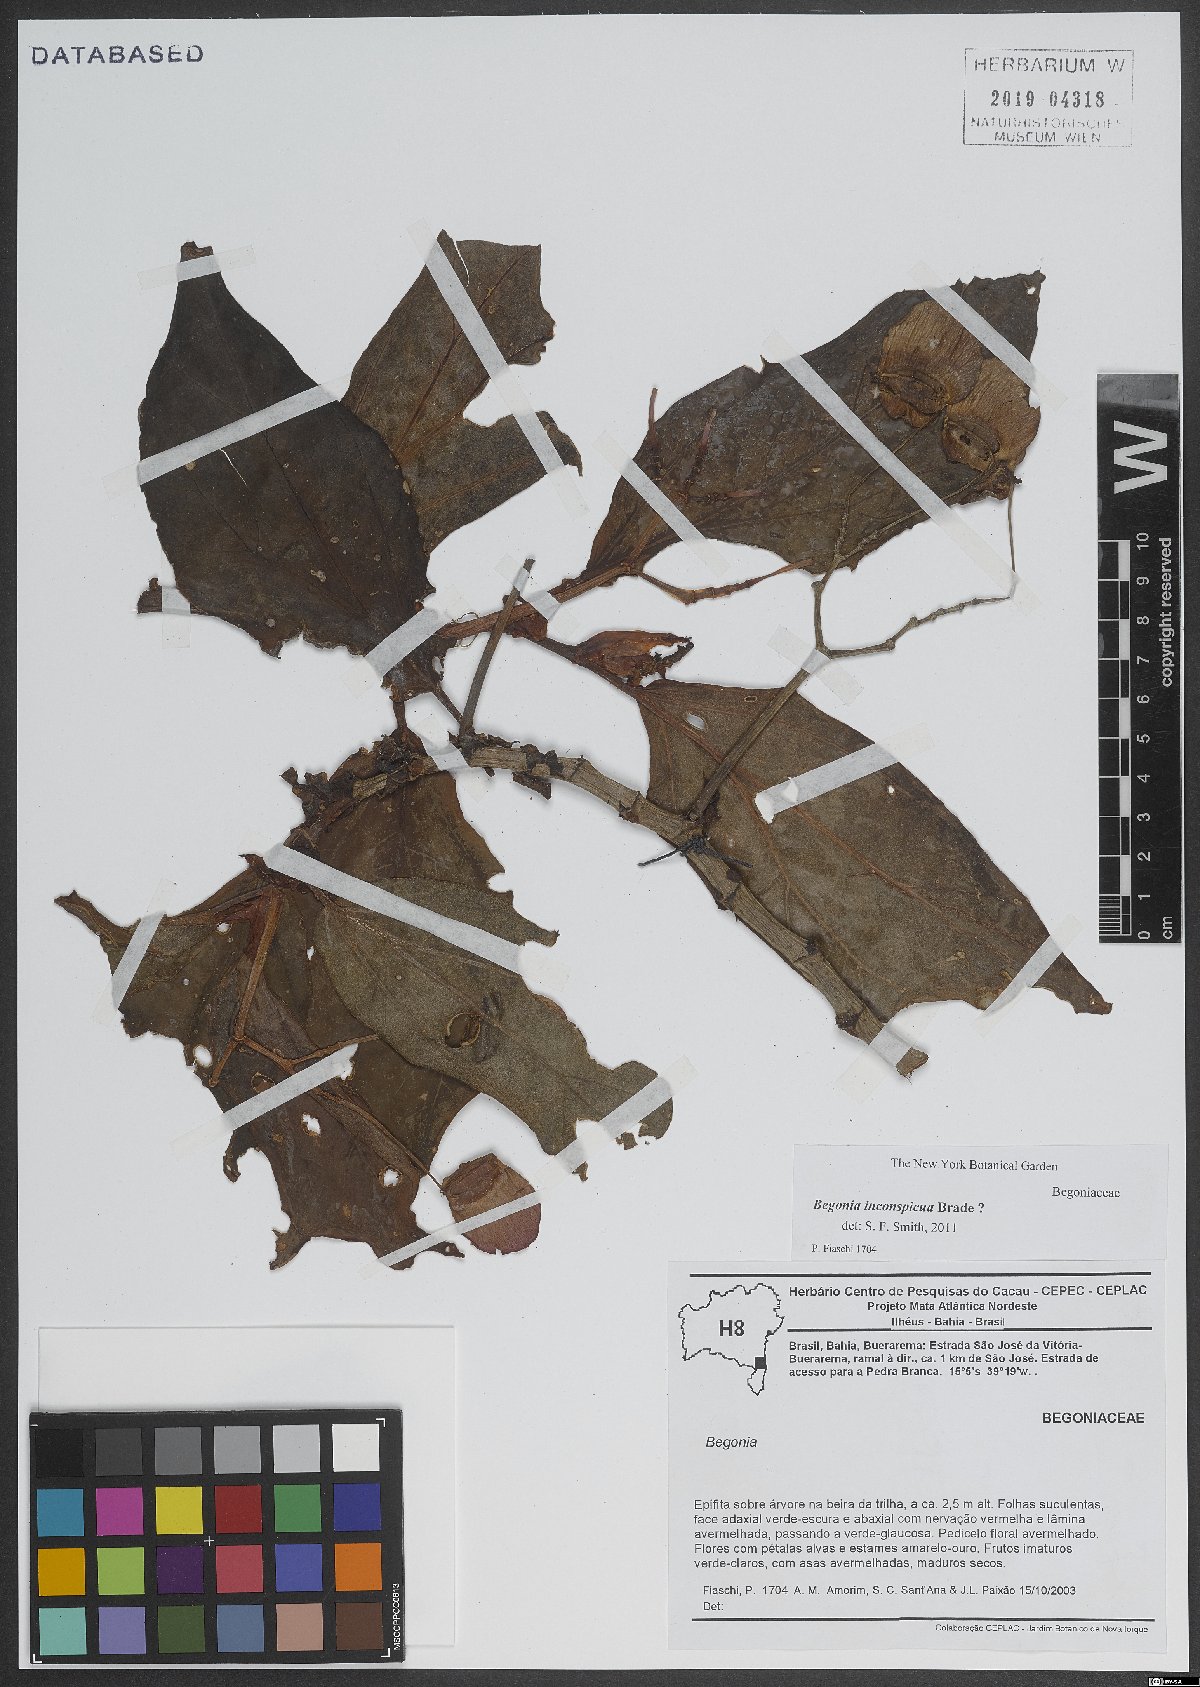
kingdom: Plantae
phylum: Tracheophyta
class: Magnoliopsida
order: Cucurbitales
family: Begoniaceae
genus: Begonia
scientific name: Begonia polygonifolia
